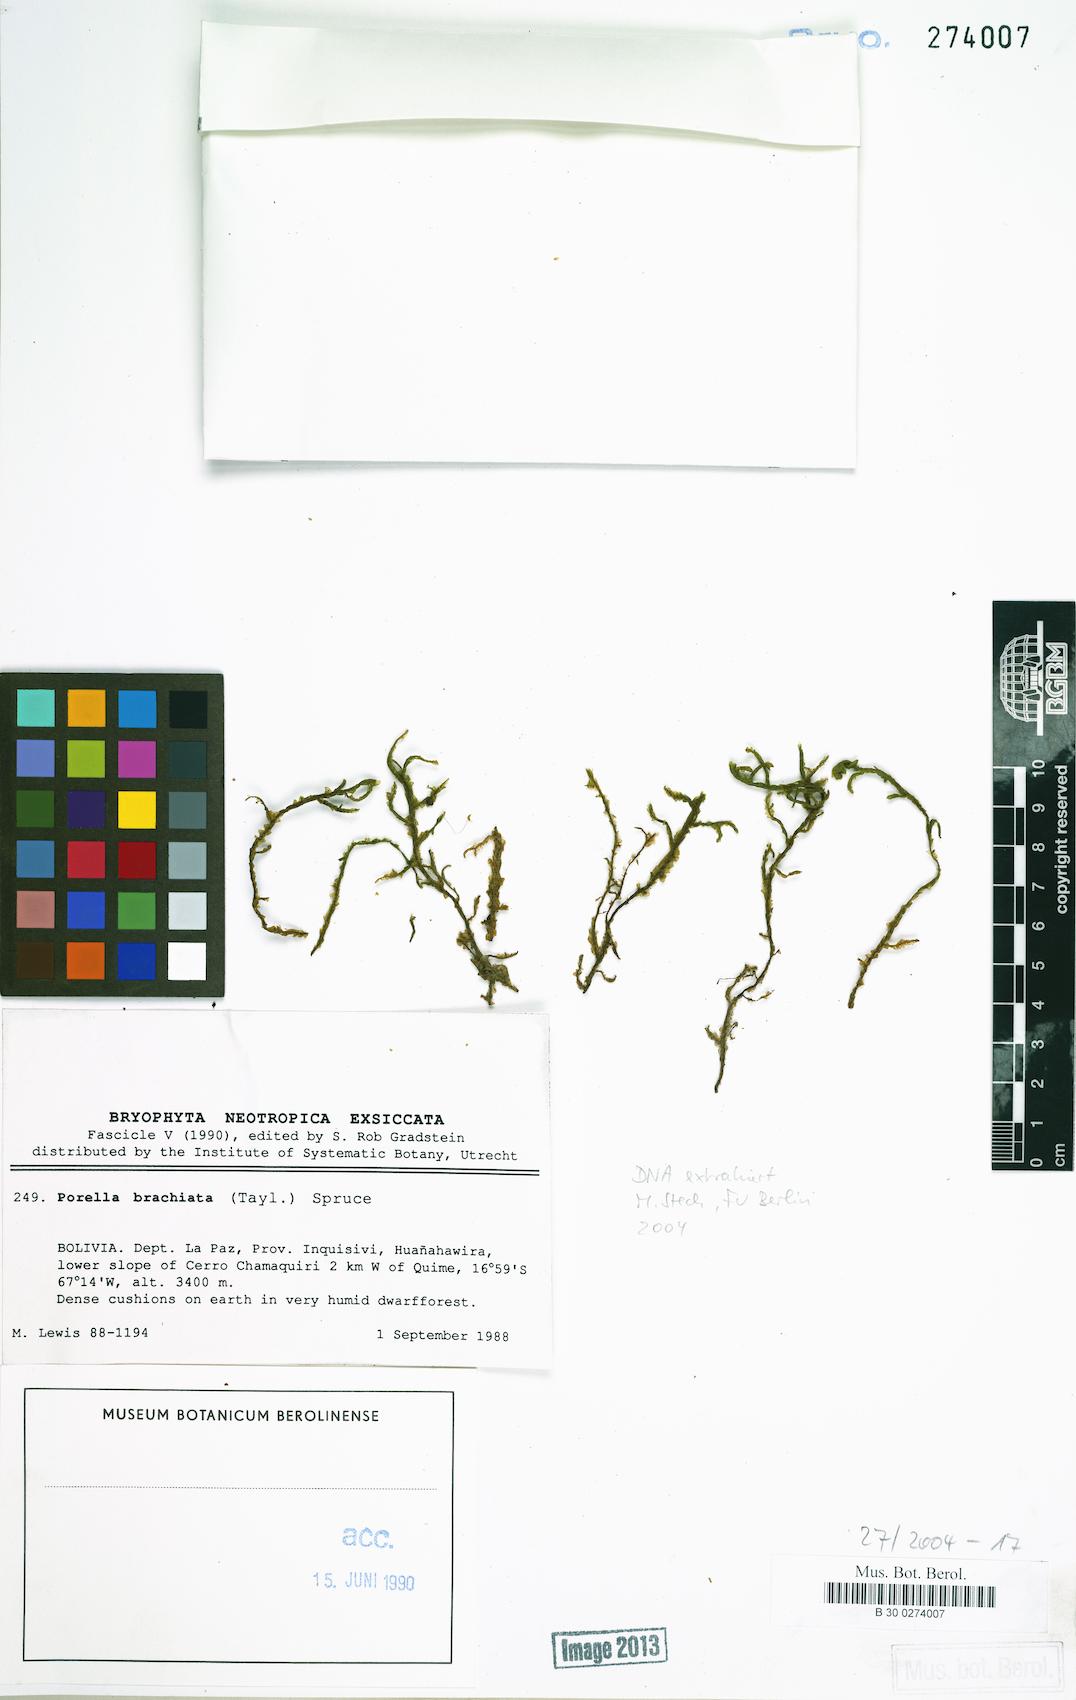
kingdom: Plantae
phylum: Marchantiophyta
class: Jungermanniopsida
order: Porellales
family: Porellaceae
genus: Porella
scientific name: Porella brachiata
